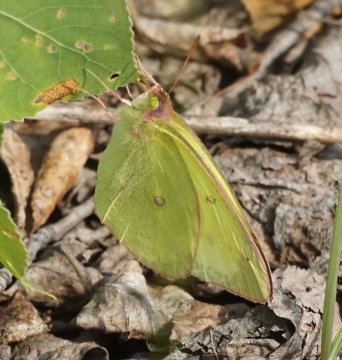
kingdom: Animalia
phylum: Arthropoda
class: Insecta
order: Lepidoptera
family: Pieridae
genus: Colias
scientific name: Colias interior
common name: Pink-edged Sulphur
